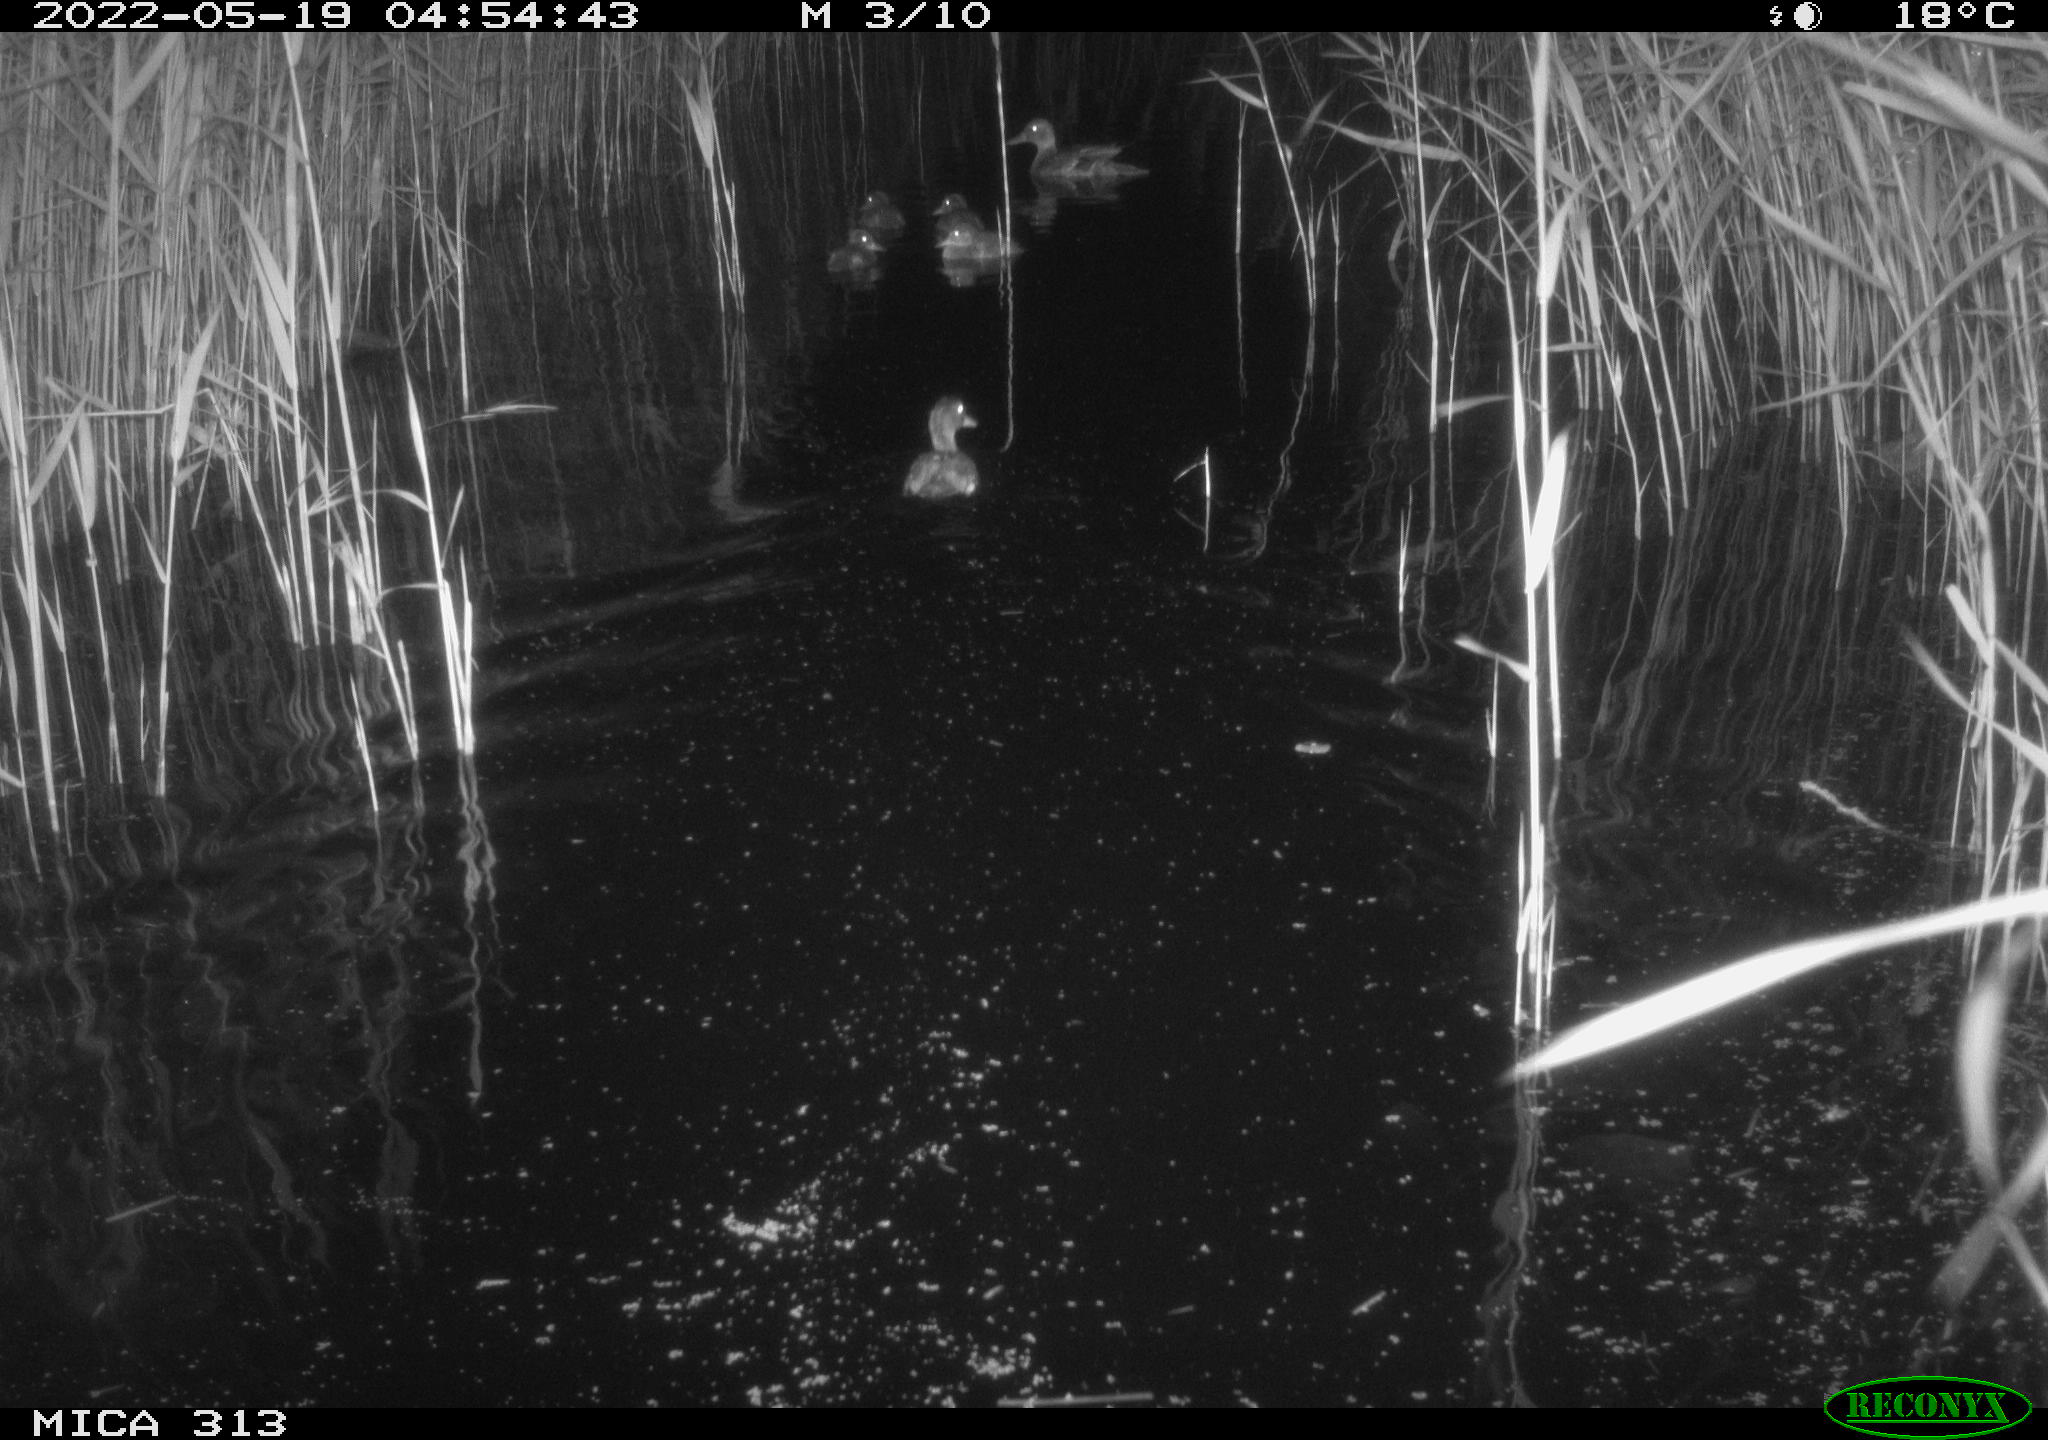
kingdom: Animalia
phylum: Chordata
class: Aves
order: Anseriformes
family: Anatidae
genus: Anas
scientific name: Anas platyrhynchos
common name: Mallard
